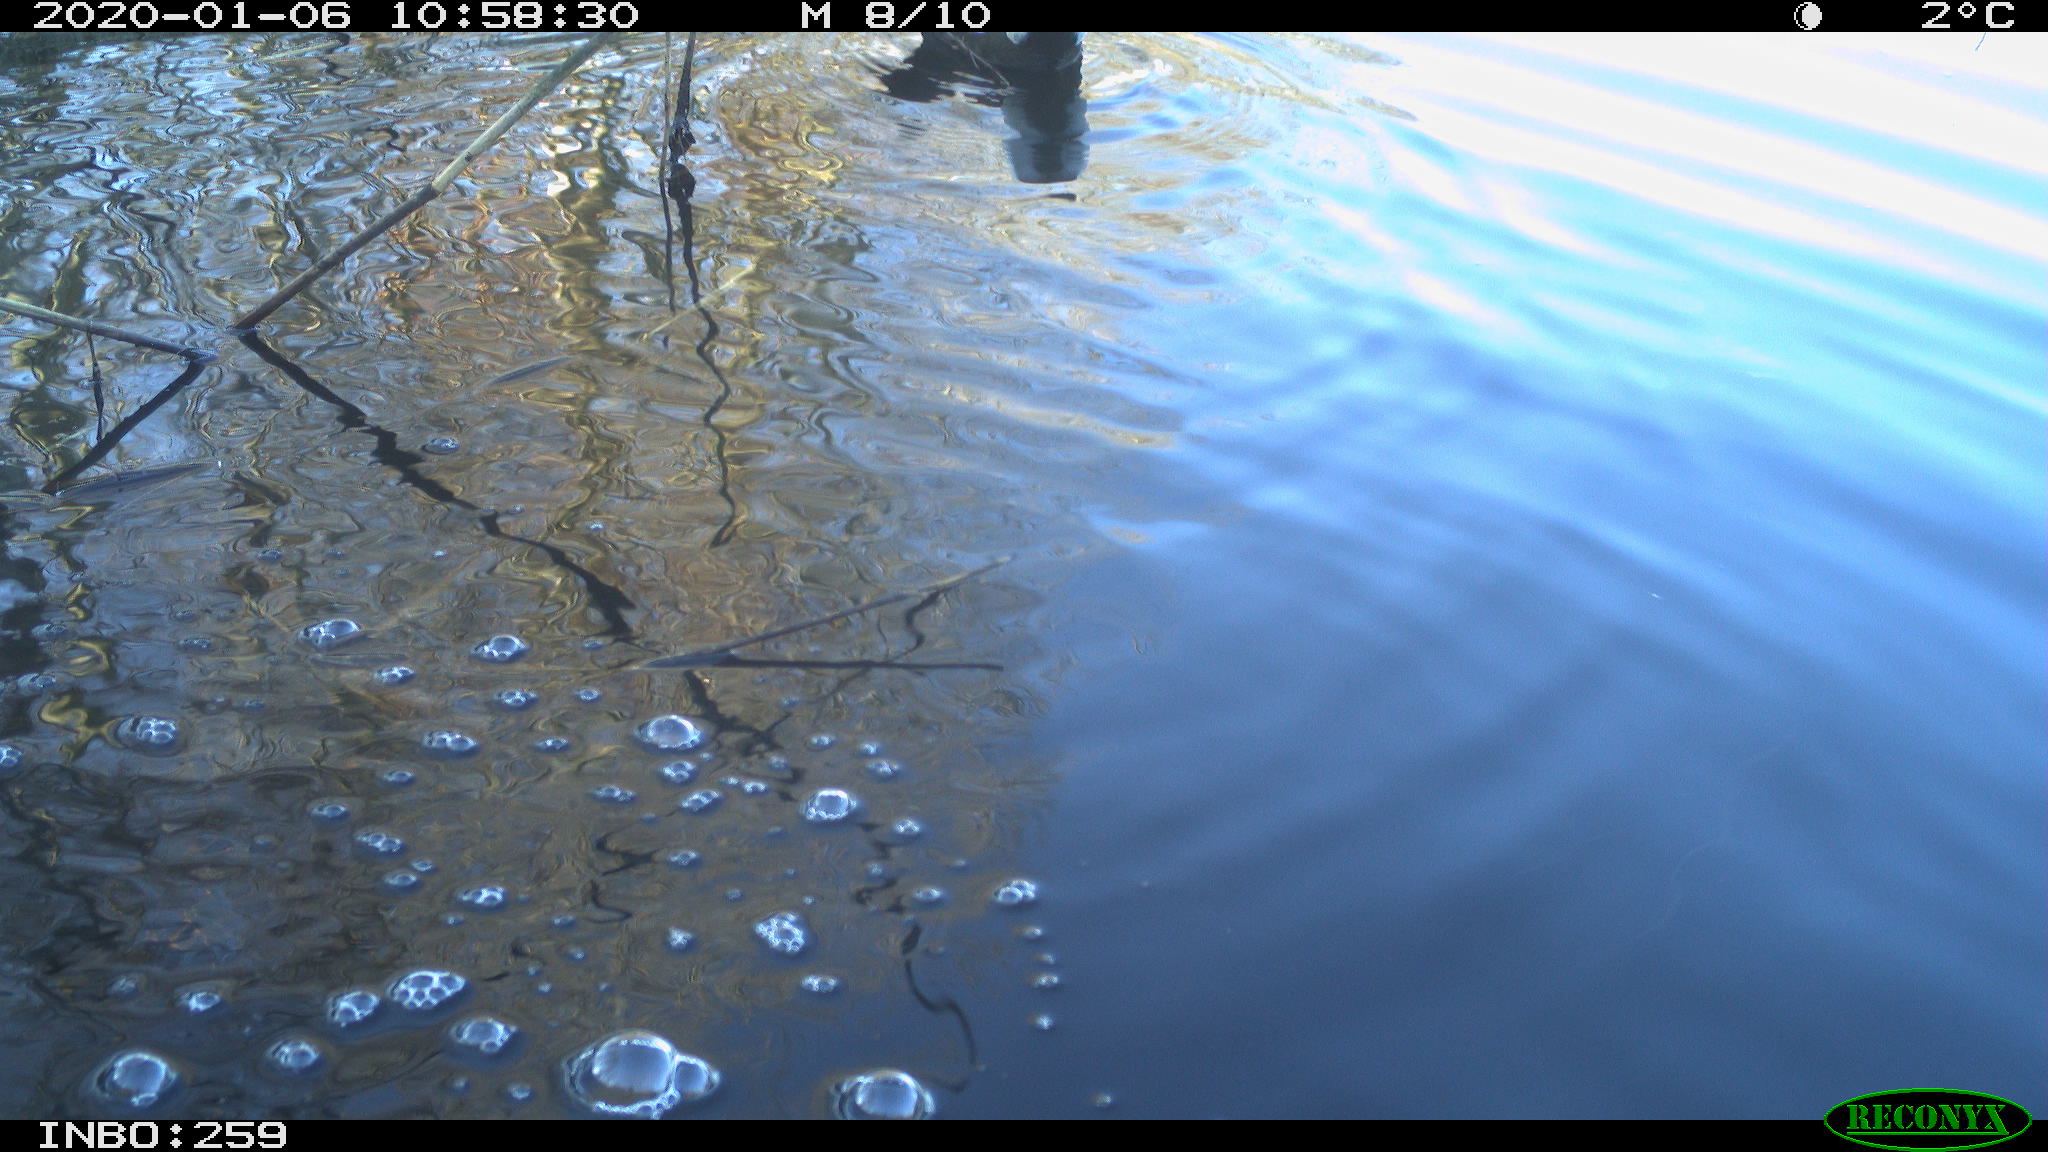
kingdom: Animalia
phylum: Chordata
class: Aves
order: Gruiformes
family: Rallidae
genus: Gallinula
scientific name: Gallinula chloropus
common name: Common moorhen
